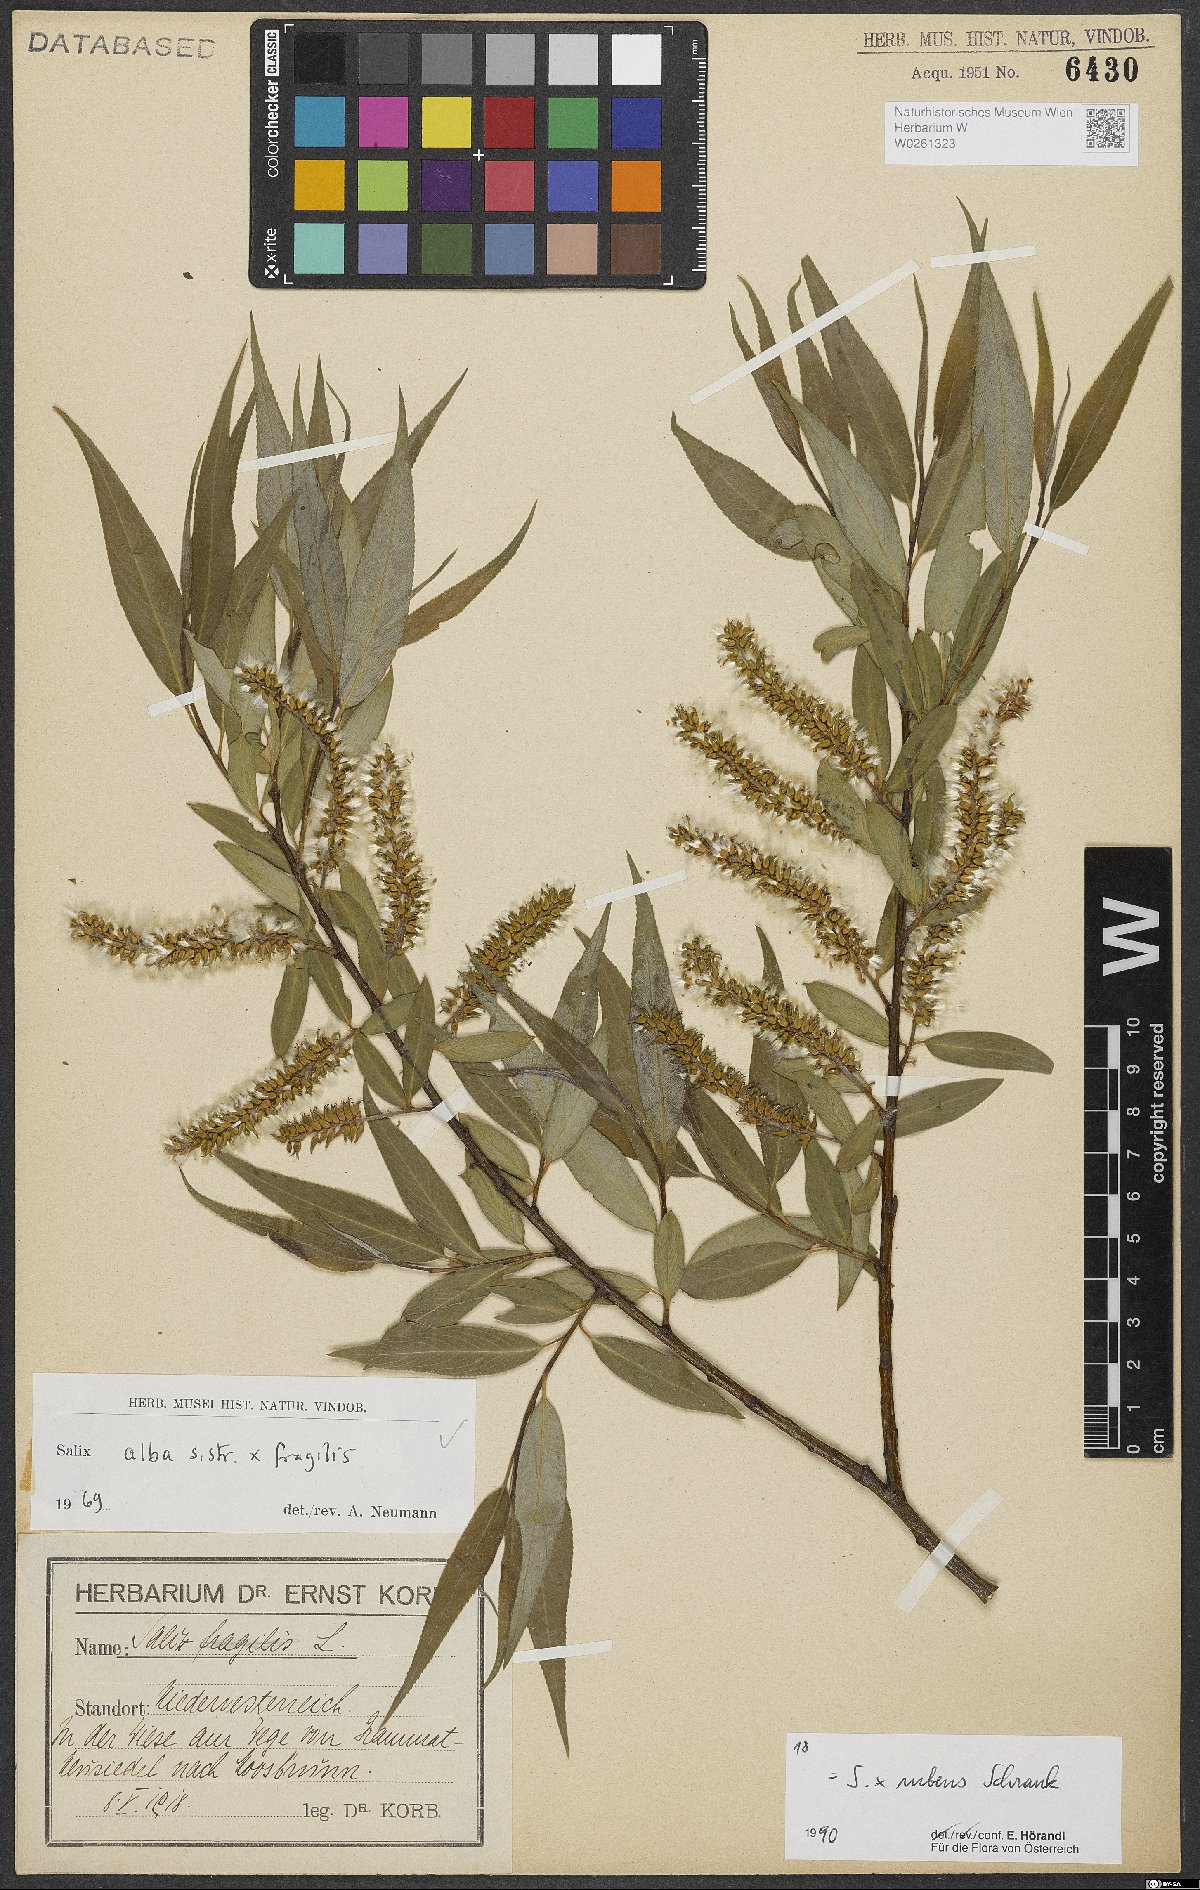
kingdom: Plantae
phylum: Tracheophyta
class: Magnoliopsida
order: Malpighiales
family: Salicaceae
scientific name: Salicaceae
